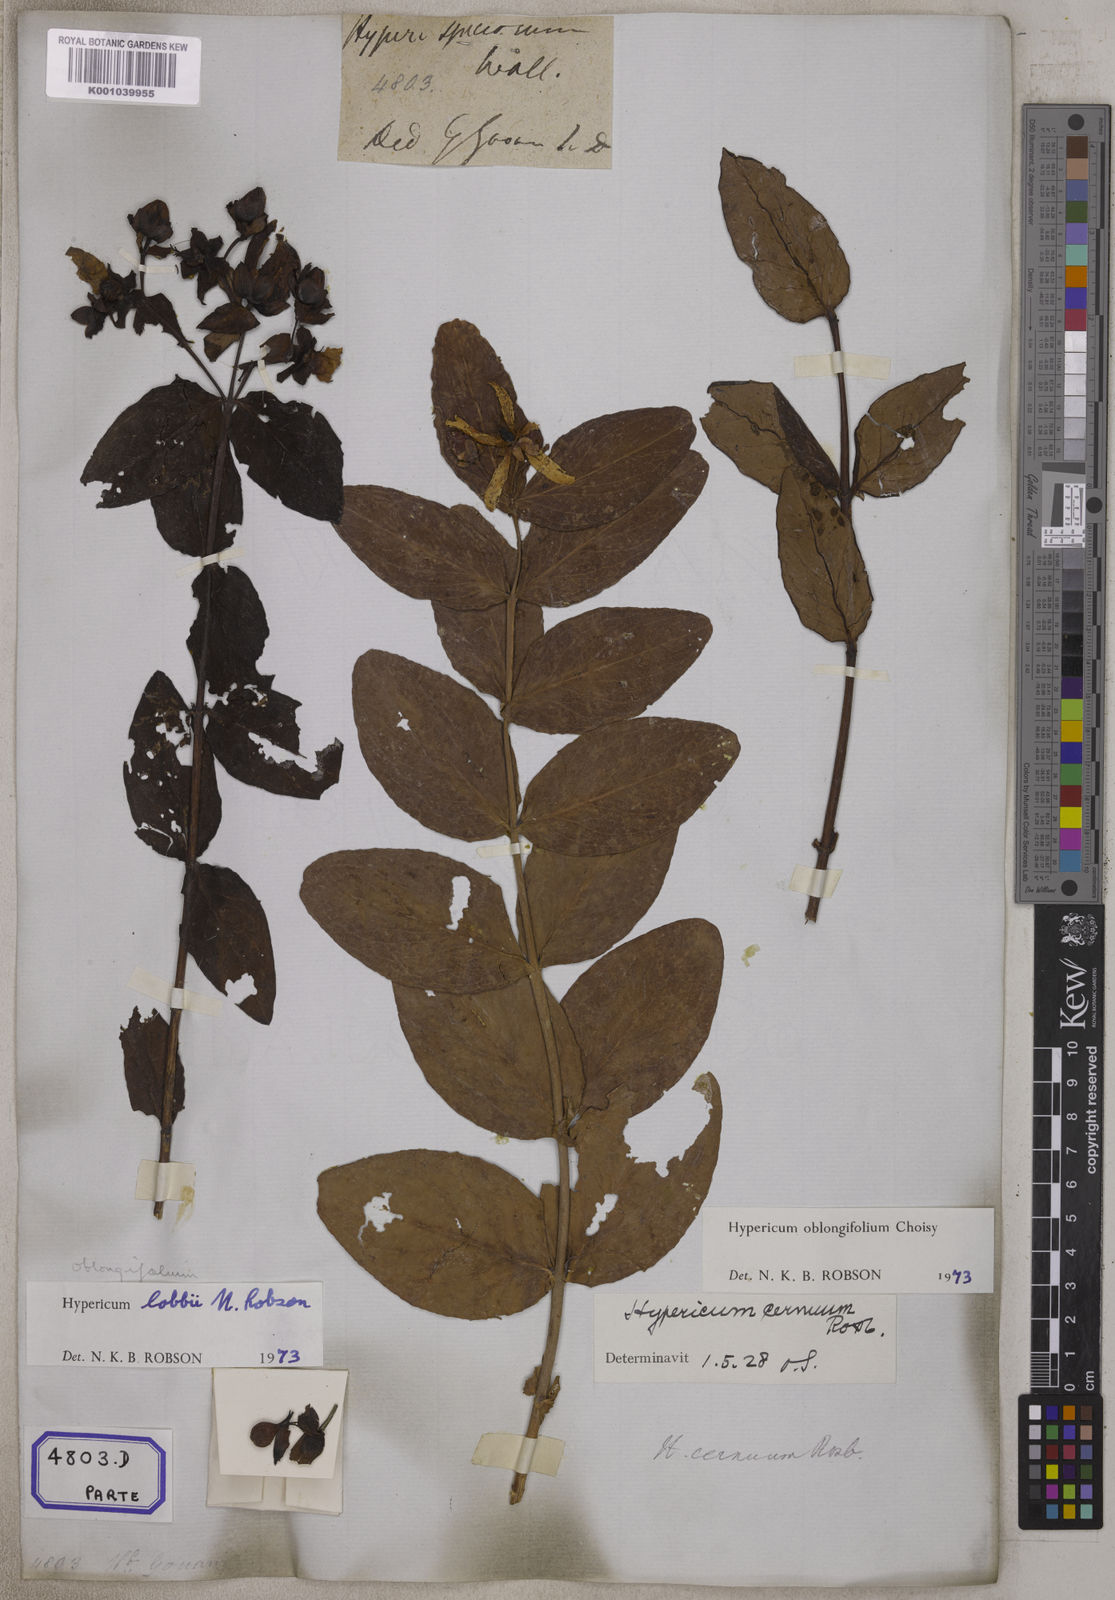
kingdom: Plantae
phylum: Tracheophyta
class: Magnoliopsida
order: Malpighiales
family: Hypericaceae
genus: Hypericum
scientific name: Hypericum oblongifolium
